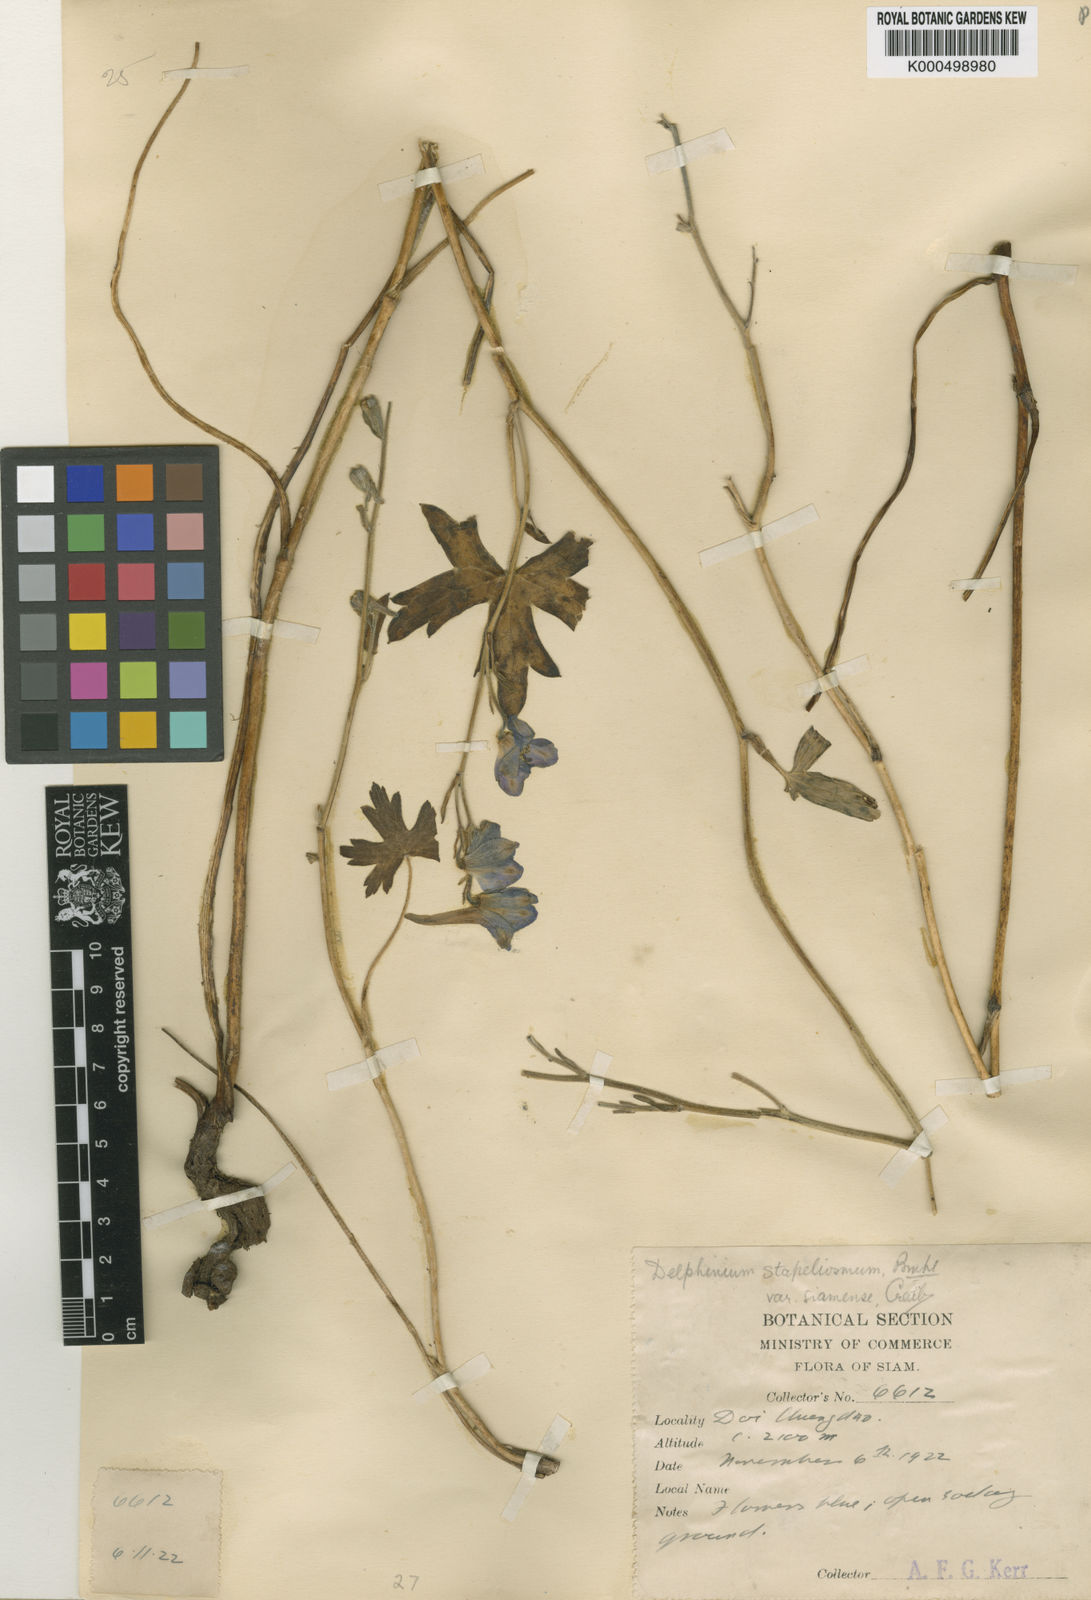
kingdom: Plantae
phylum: Tracheophyta
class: Magnoliopsida
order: Ranunculales
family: Ranunculaceae
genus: Delphinium
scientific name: Delphinium siamense
